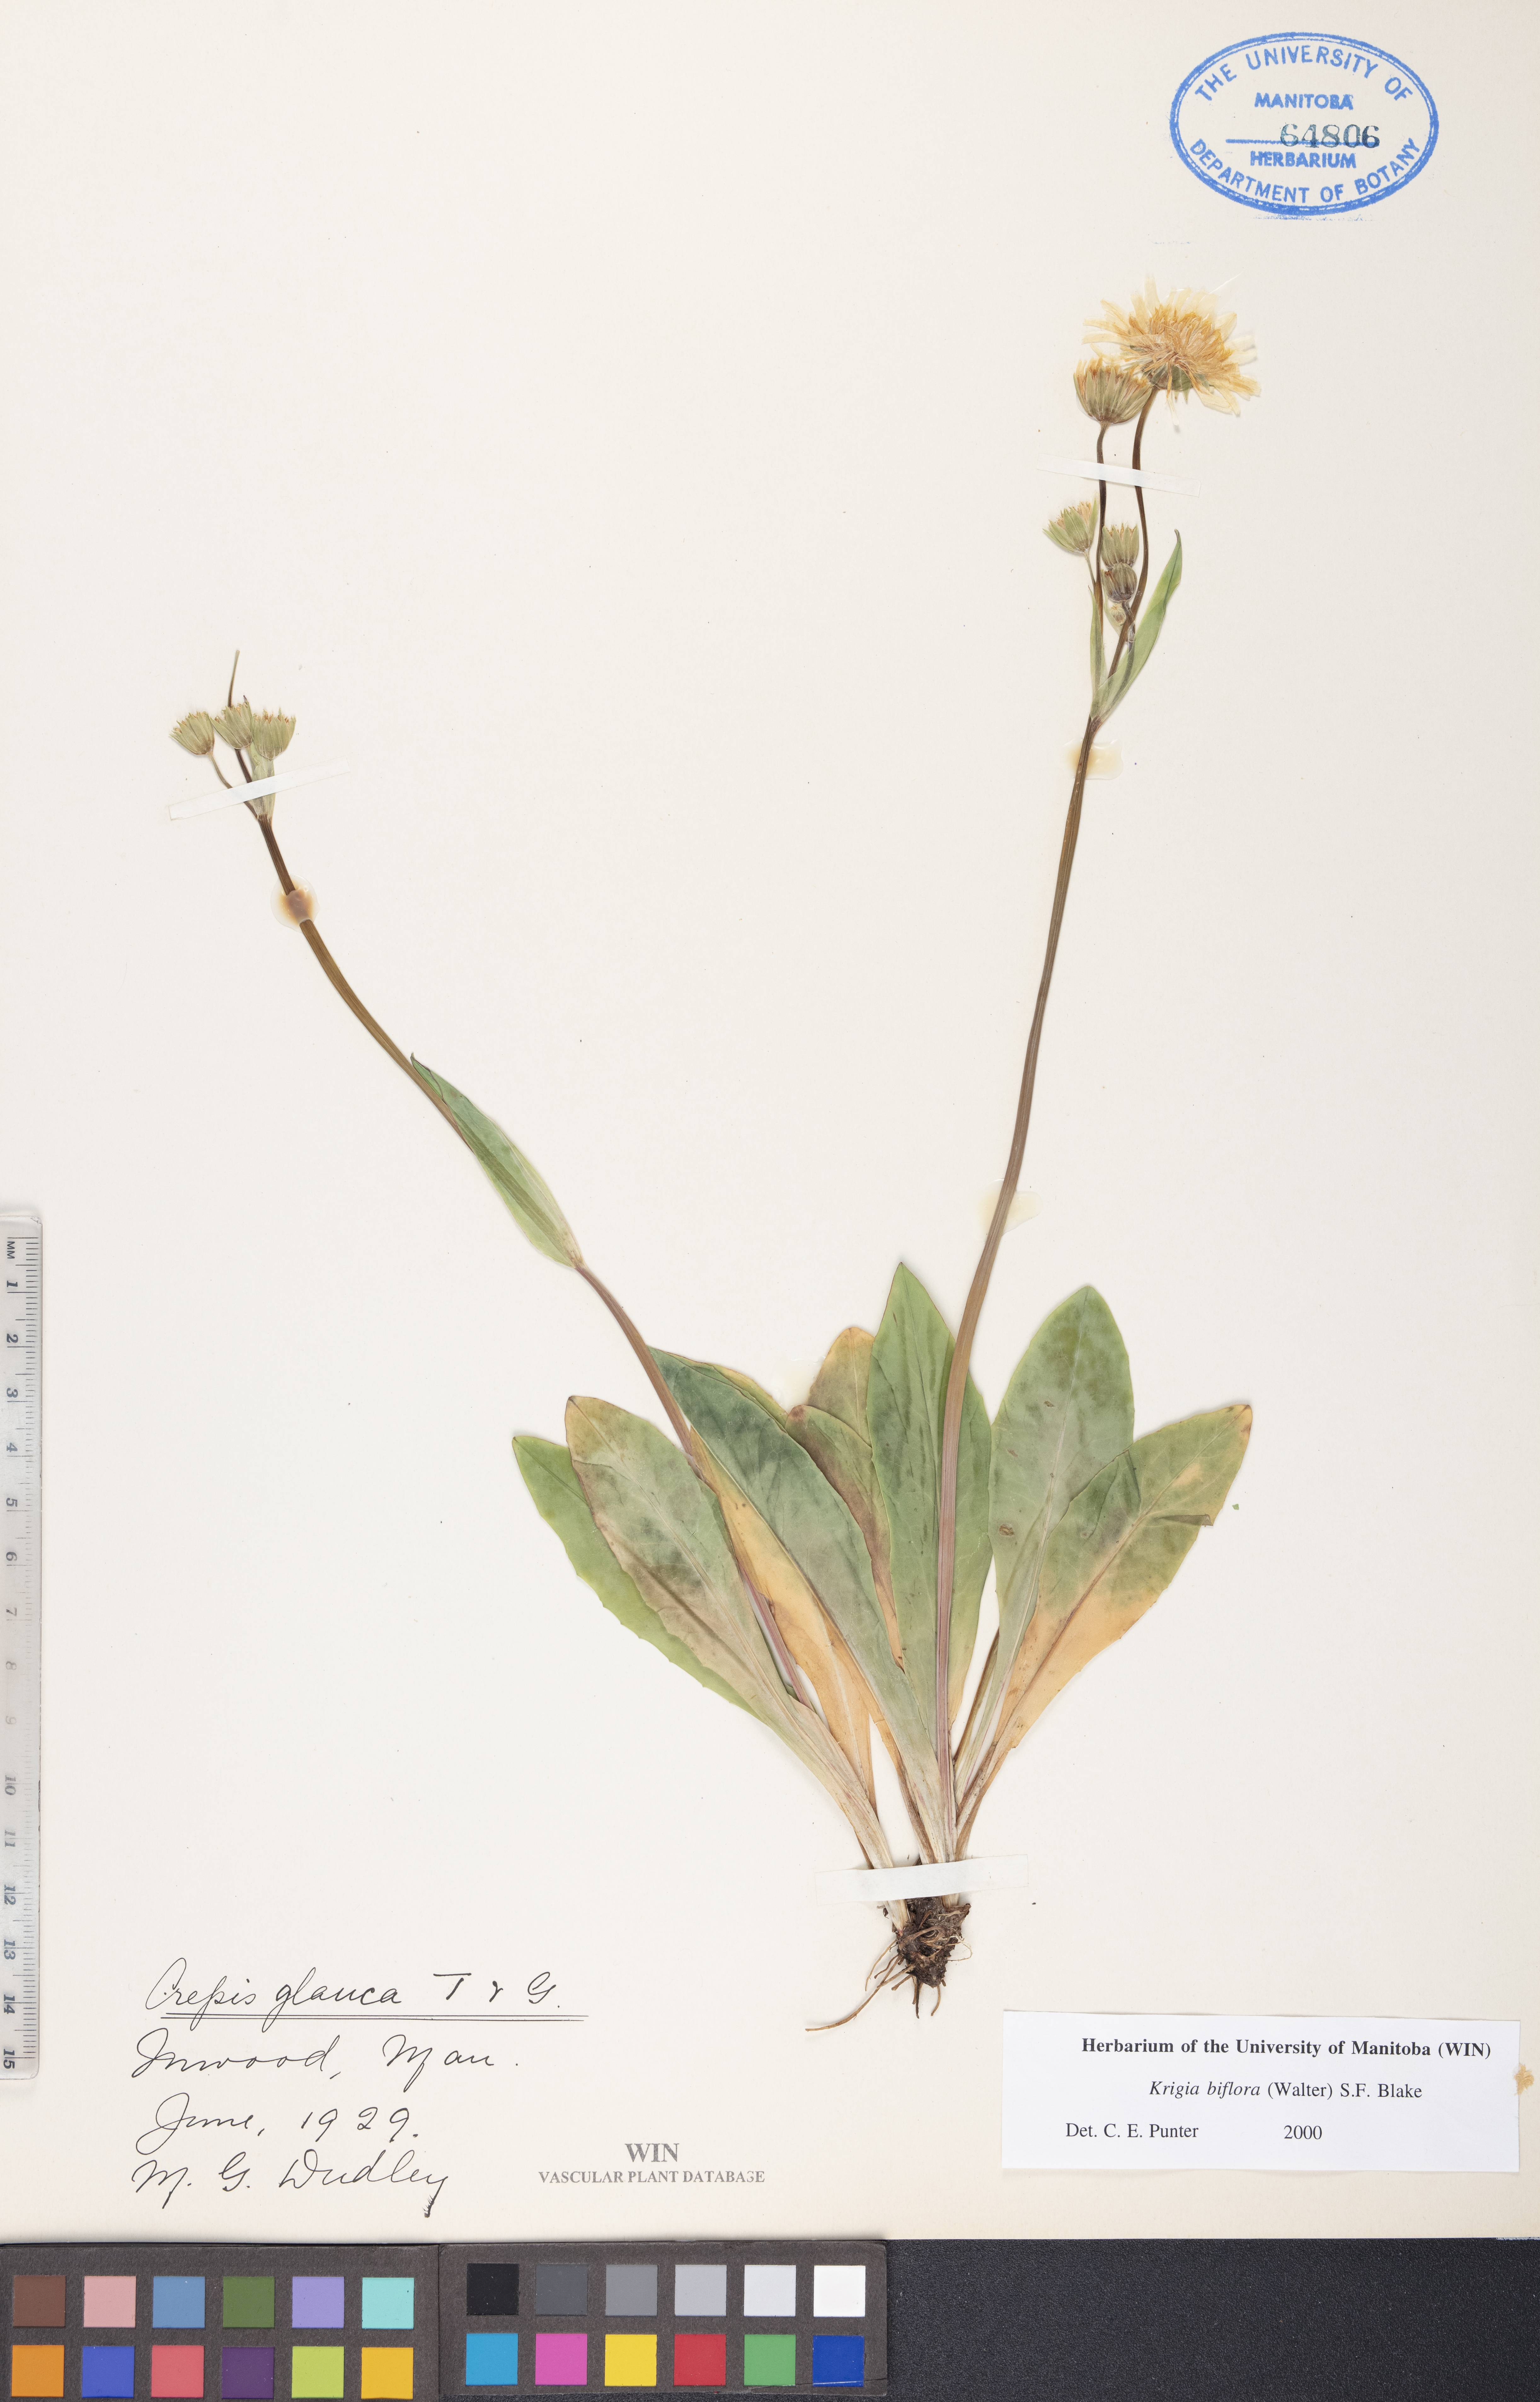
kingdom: Plantae
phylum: Tracheophyta
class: Magnoliopsida
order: Asterales
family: Asteraceae
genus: Krigia
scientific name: Krigia biflora
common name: Orange dwarf-dandelion
